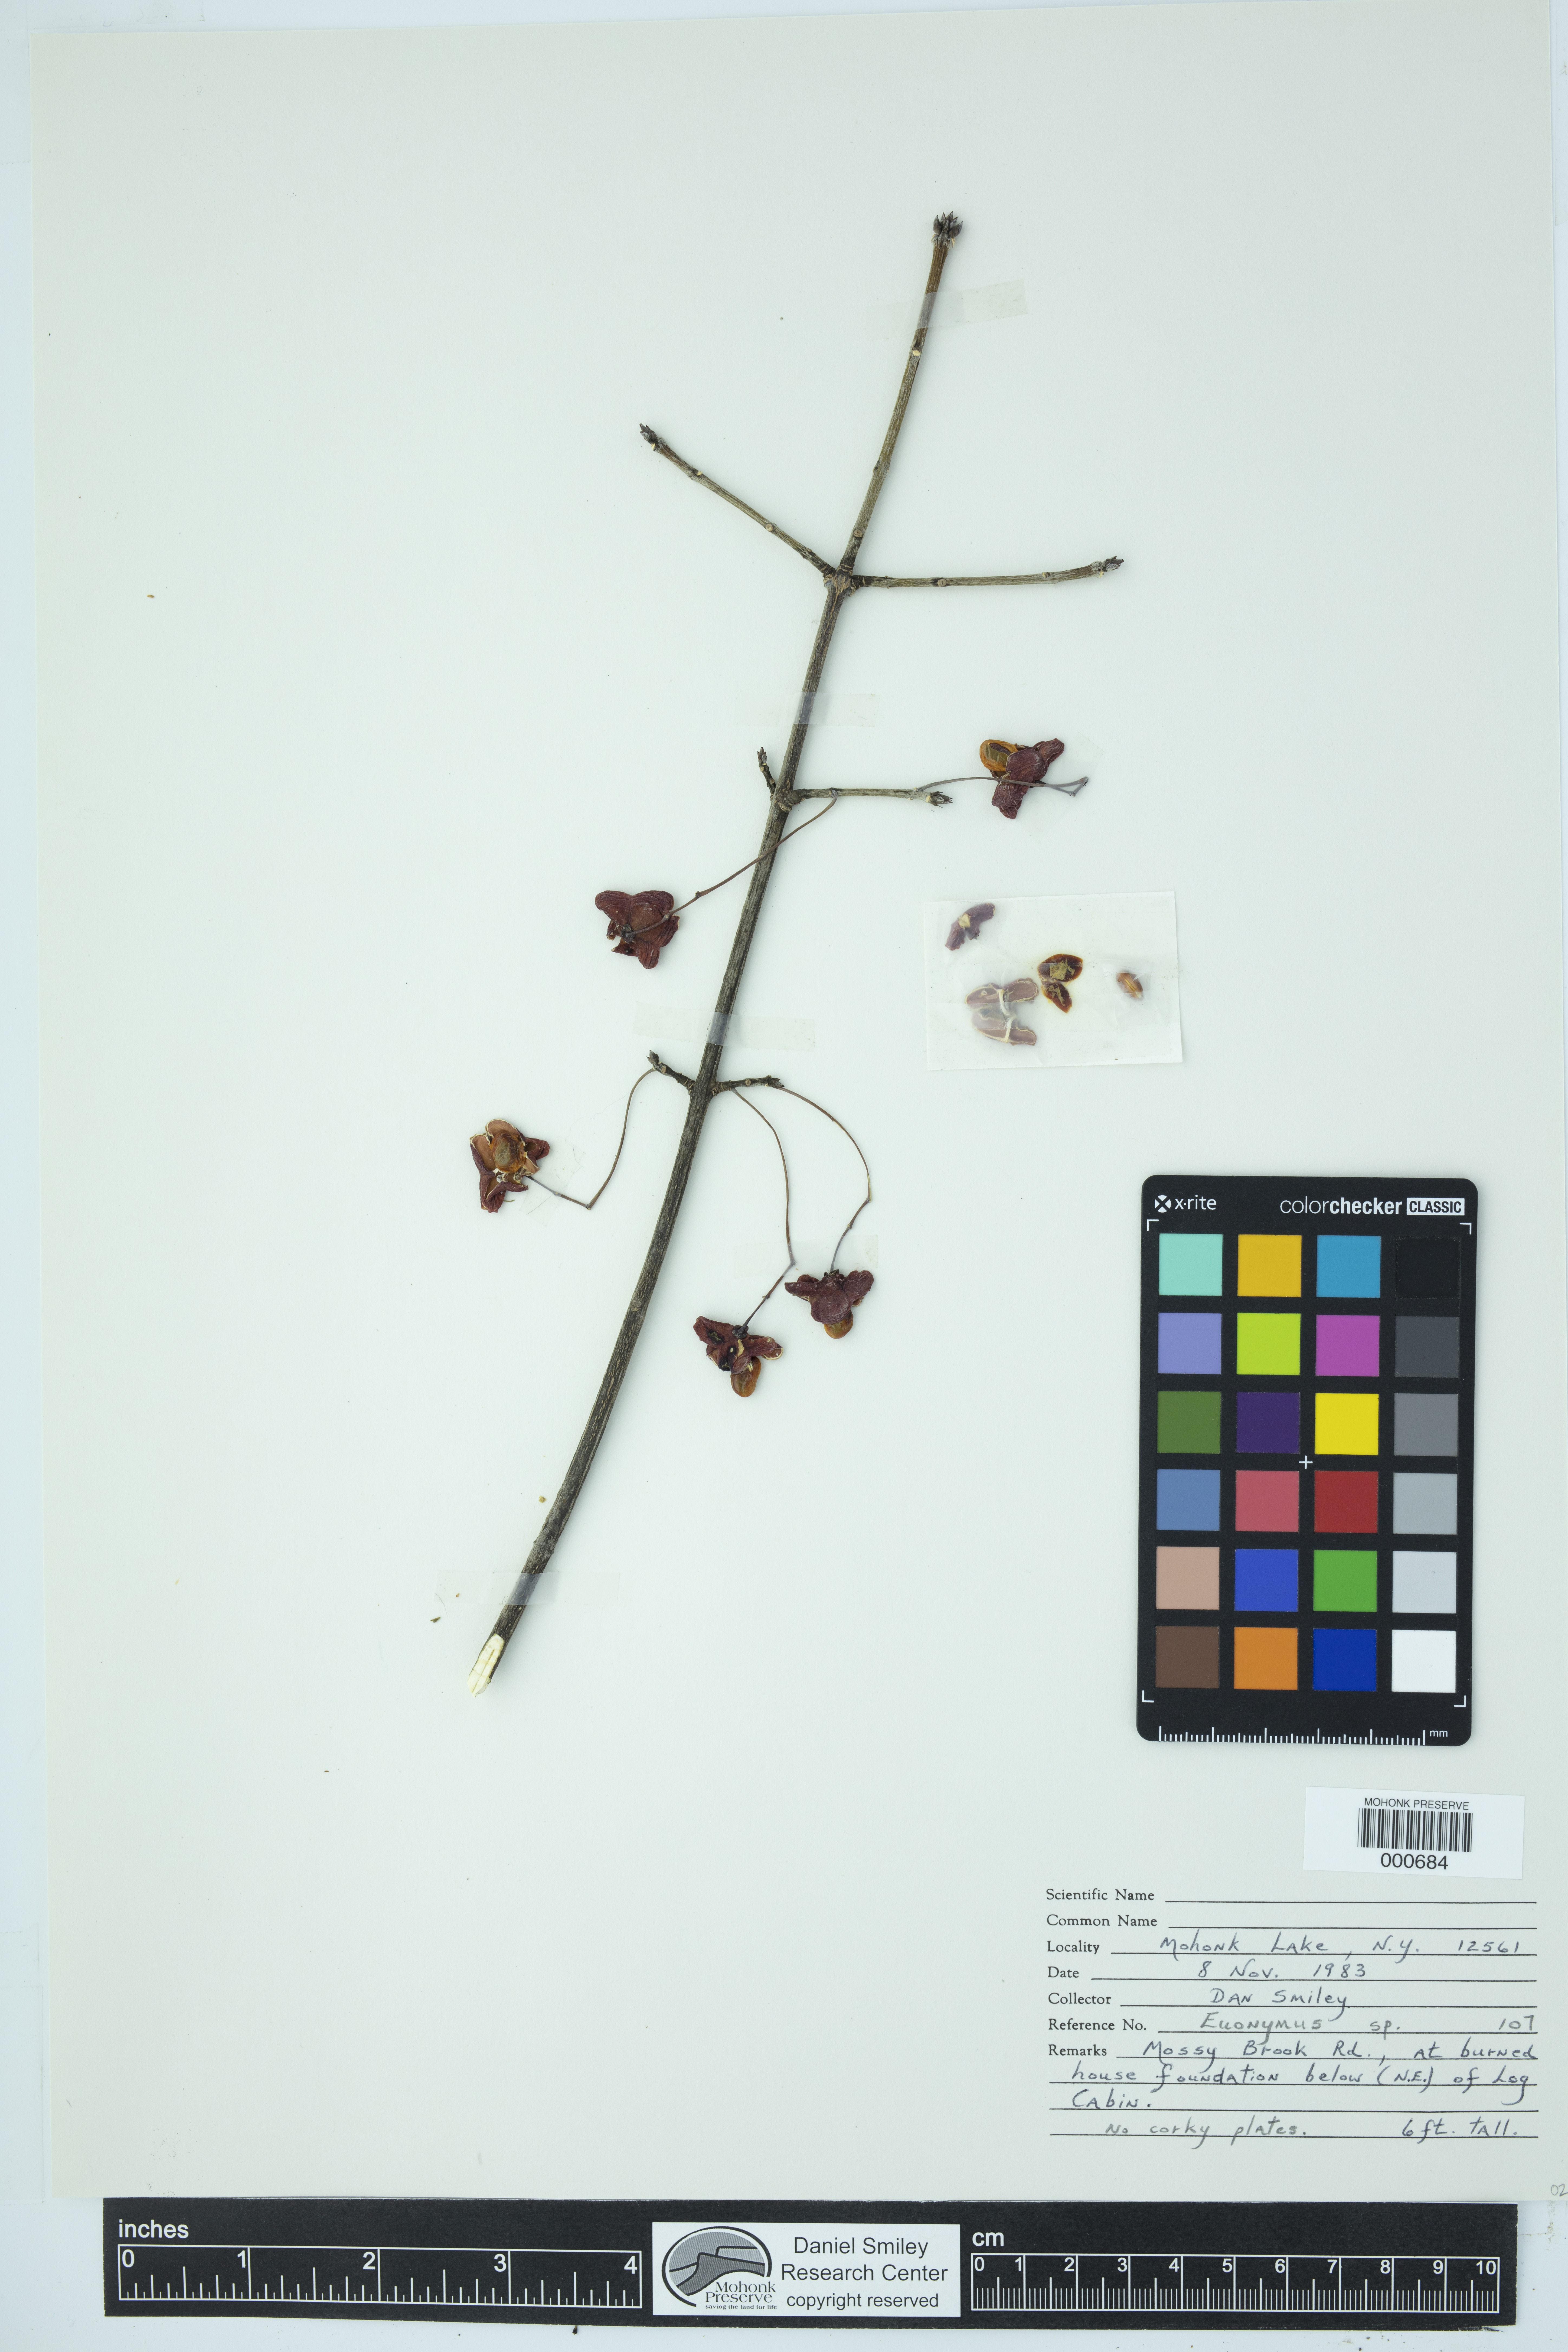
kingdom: Plantae
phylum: Tracheophyta
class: Magnoliopsida
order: Celastrales
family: Celastraceae
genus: Euonymus
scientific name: Euonymus
